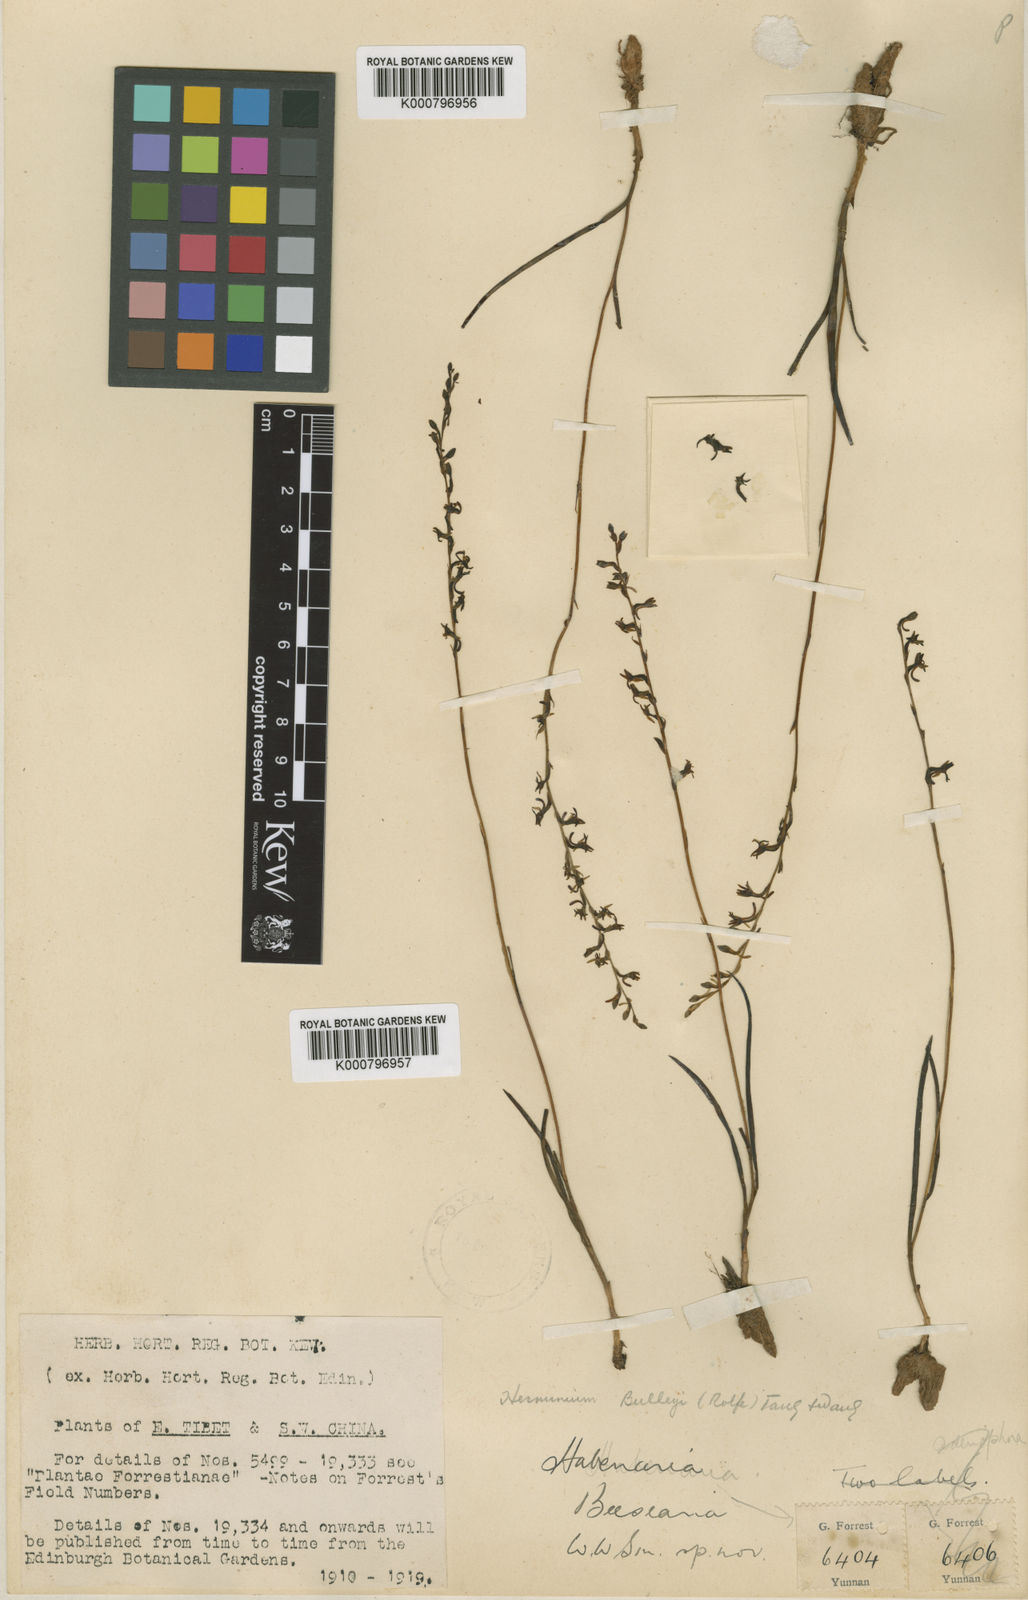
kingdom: Plantae
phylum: Tracheophyta
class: Liliopsida
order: Asparagales
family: Orchidaceae
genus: Herminium
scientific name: Herminium bulleyi
